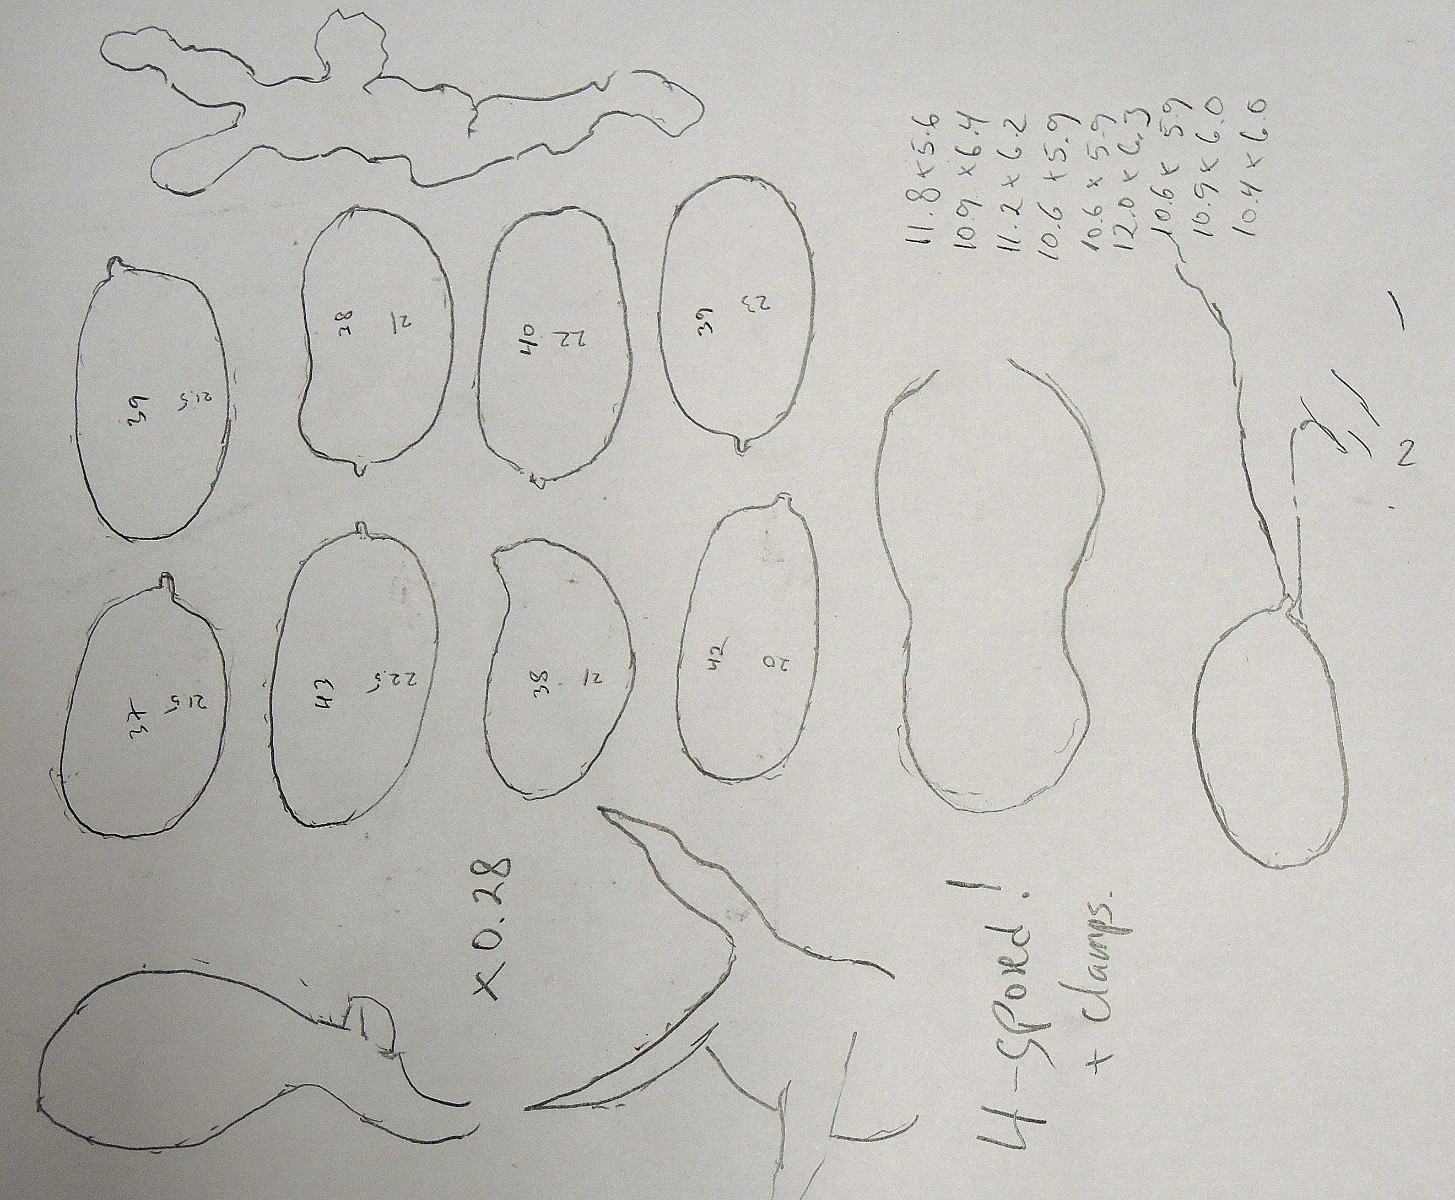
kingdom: Fungi
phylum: Basidiomycota
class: Agaricomycetes
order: Agaricales
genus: Dendrothele
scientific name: Dendrothele pachysterigmata
